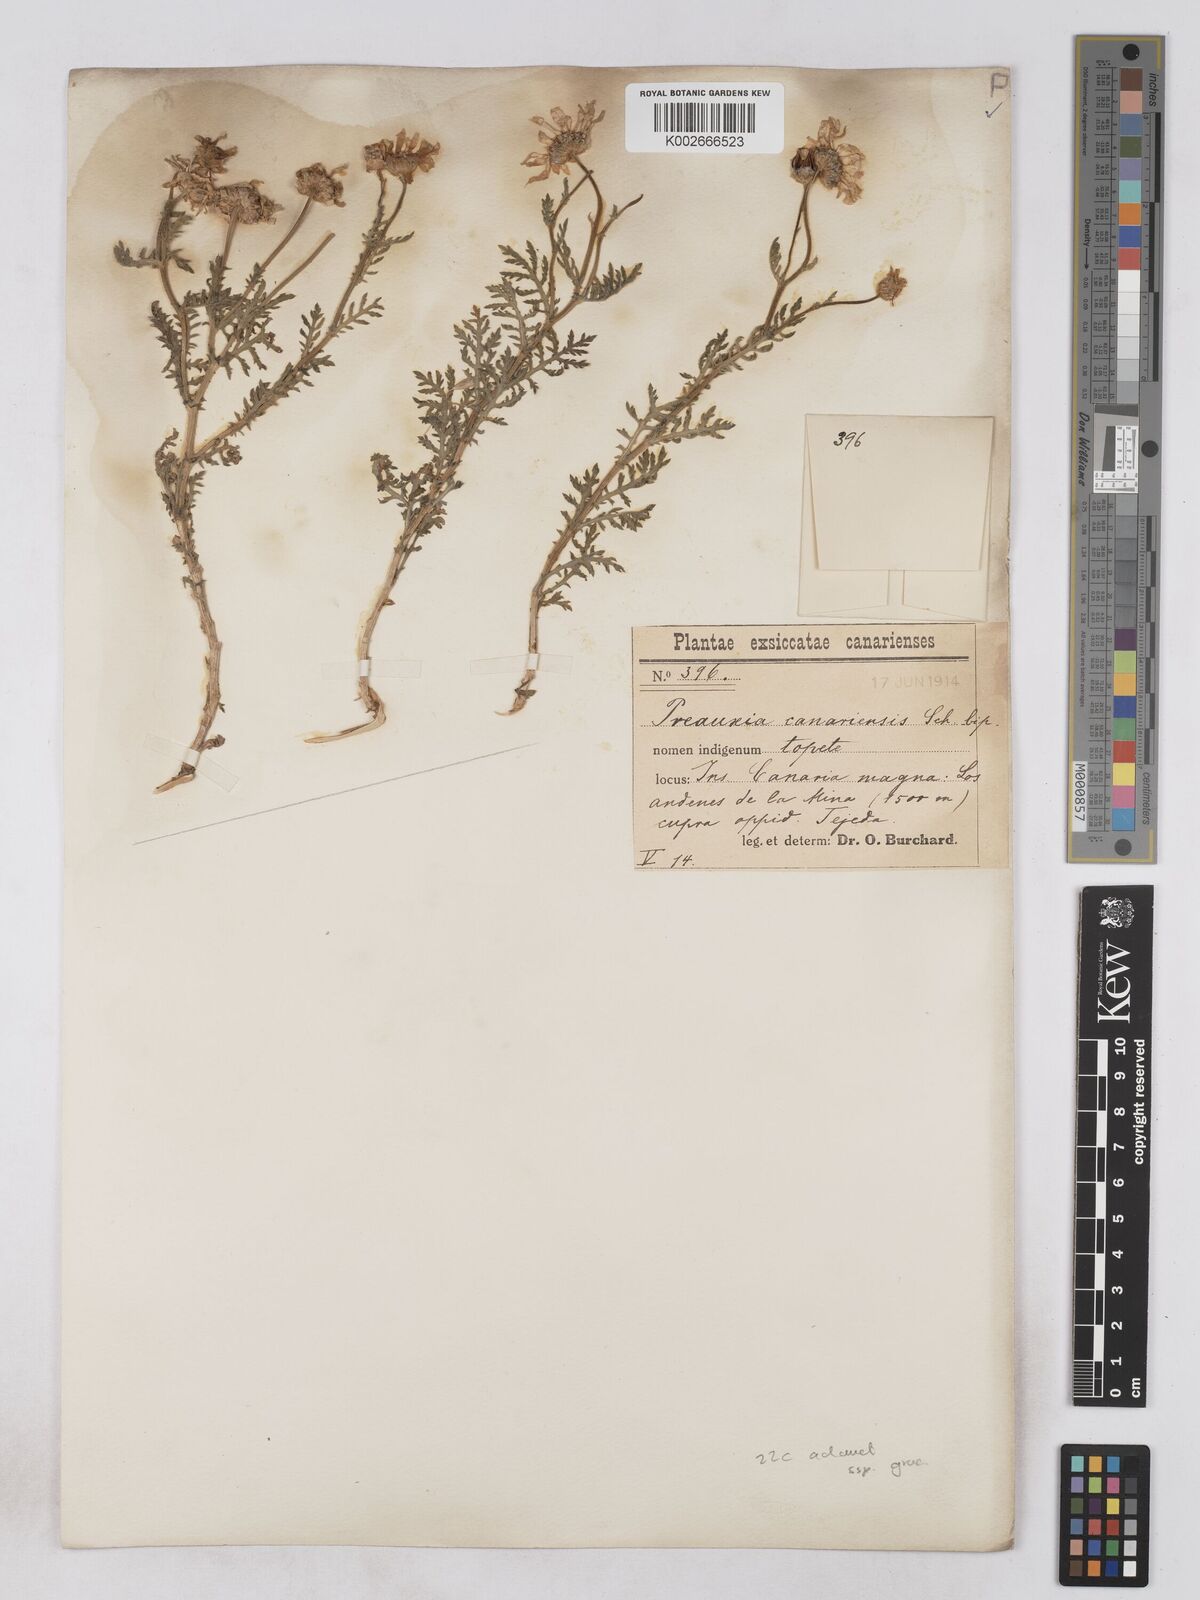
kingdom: Plantae
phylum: Tracheophyta
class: Magnoliopsida
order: Asterales
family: Asteraceae
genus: Argyranthemum
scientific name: Argyranthemum adauctum
